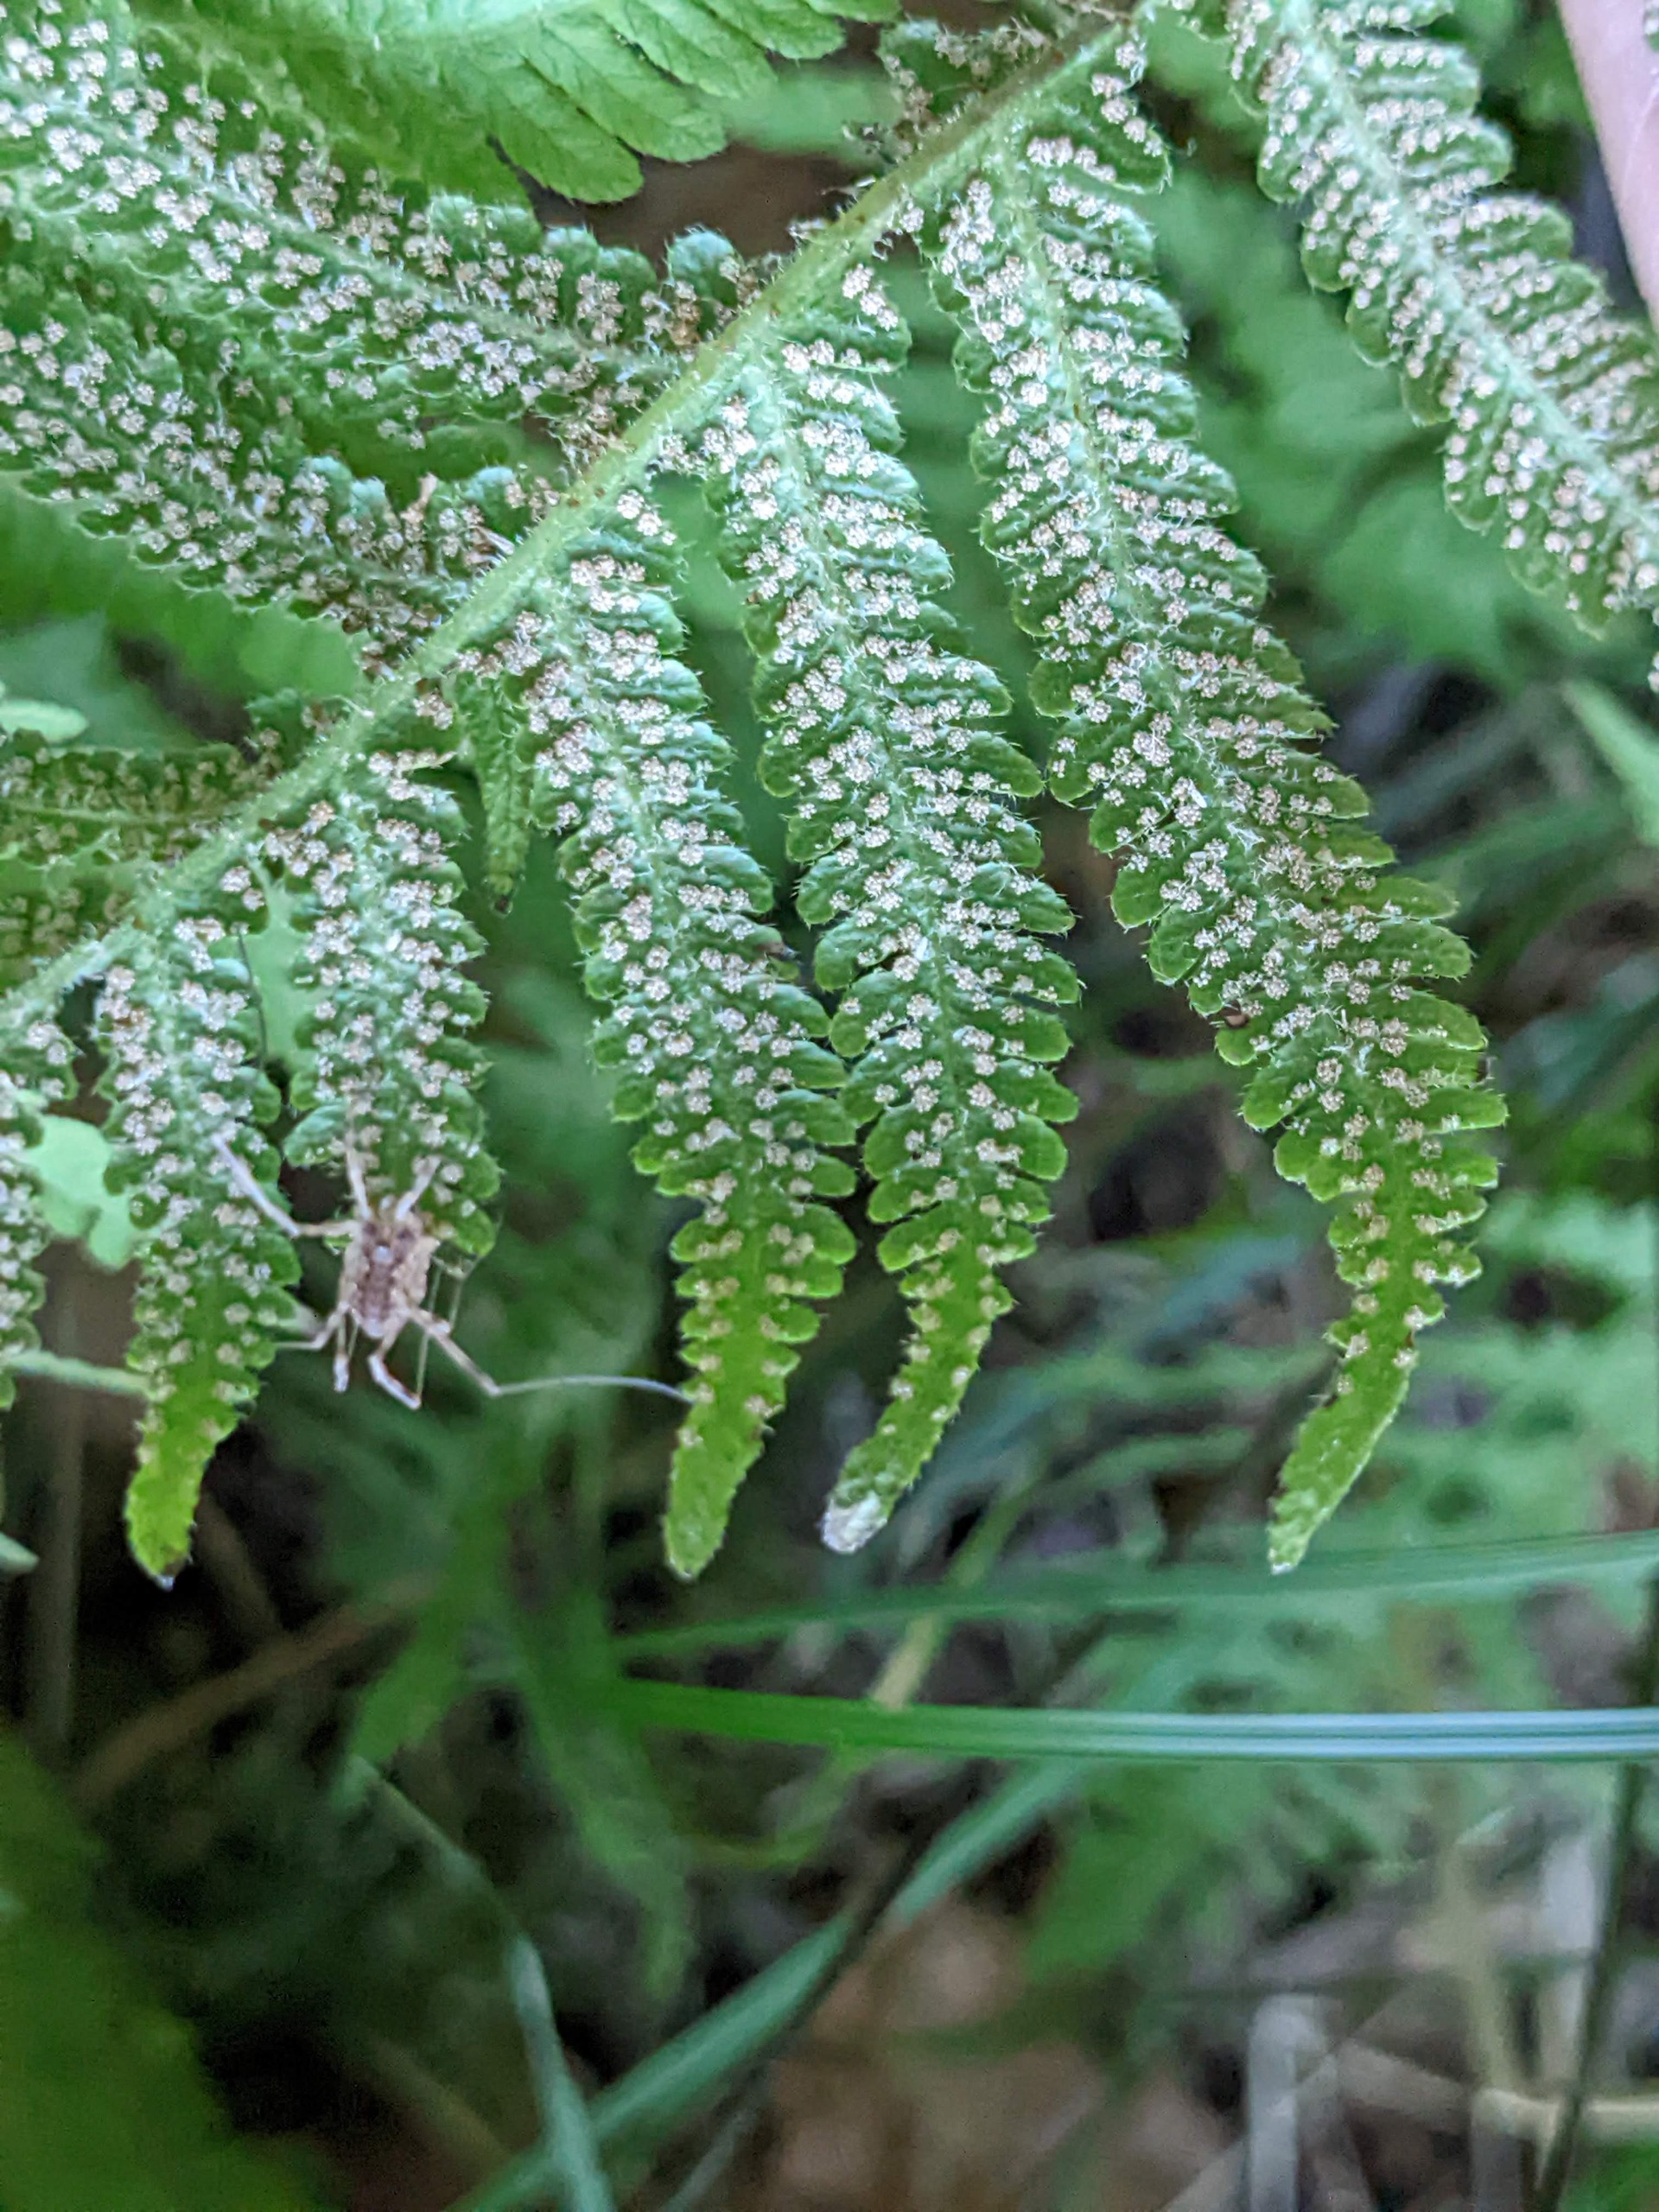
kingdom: Plantae
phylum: Tracheophyta
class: Polypodiopsida
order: Polypodiales
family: Thelypteridaceae
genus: Phegopteris
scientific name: Phegopteris connectilis
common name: Dunet egebregne
